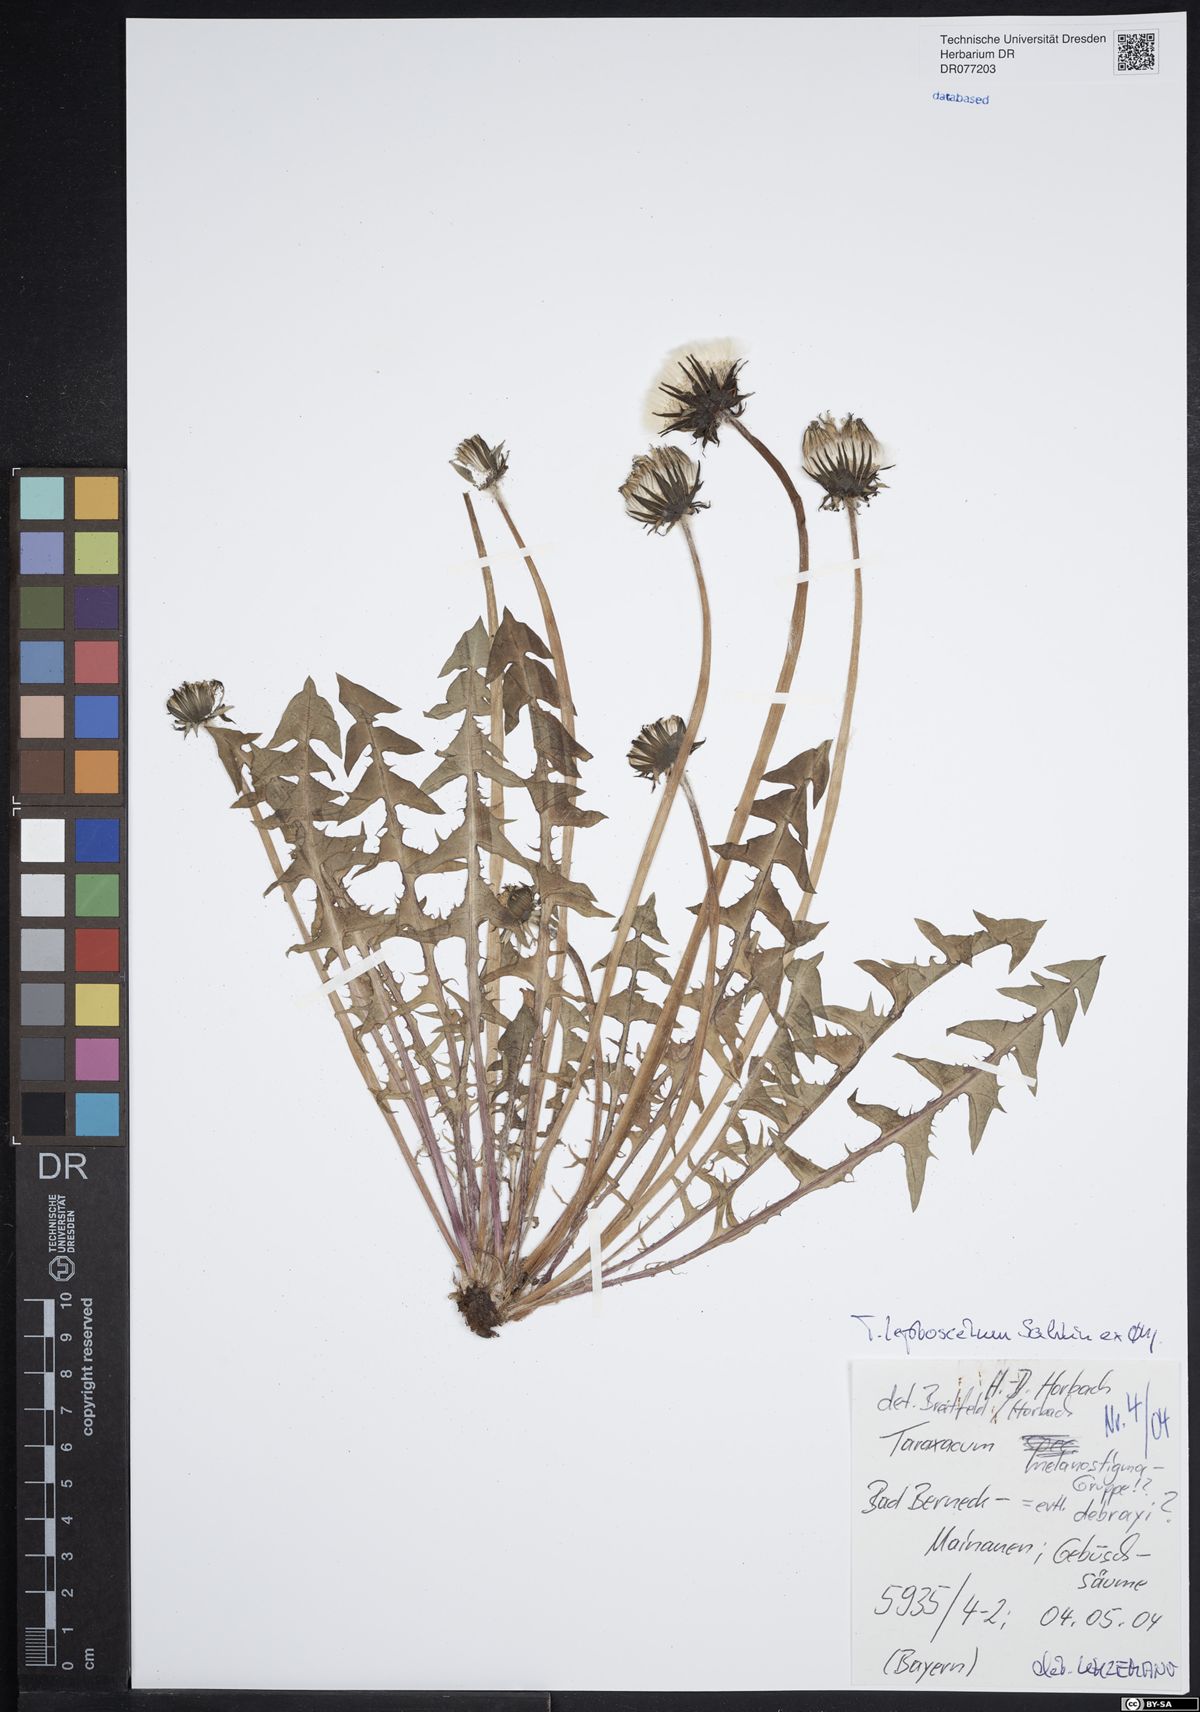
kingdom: Plantae
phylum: Tracheophyta
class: Magnoliopsida
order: Asterales
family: Asteraceae
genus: Taraxacum
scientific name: Taraxacum leptoscelum
